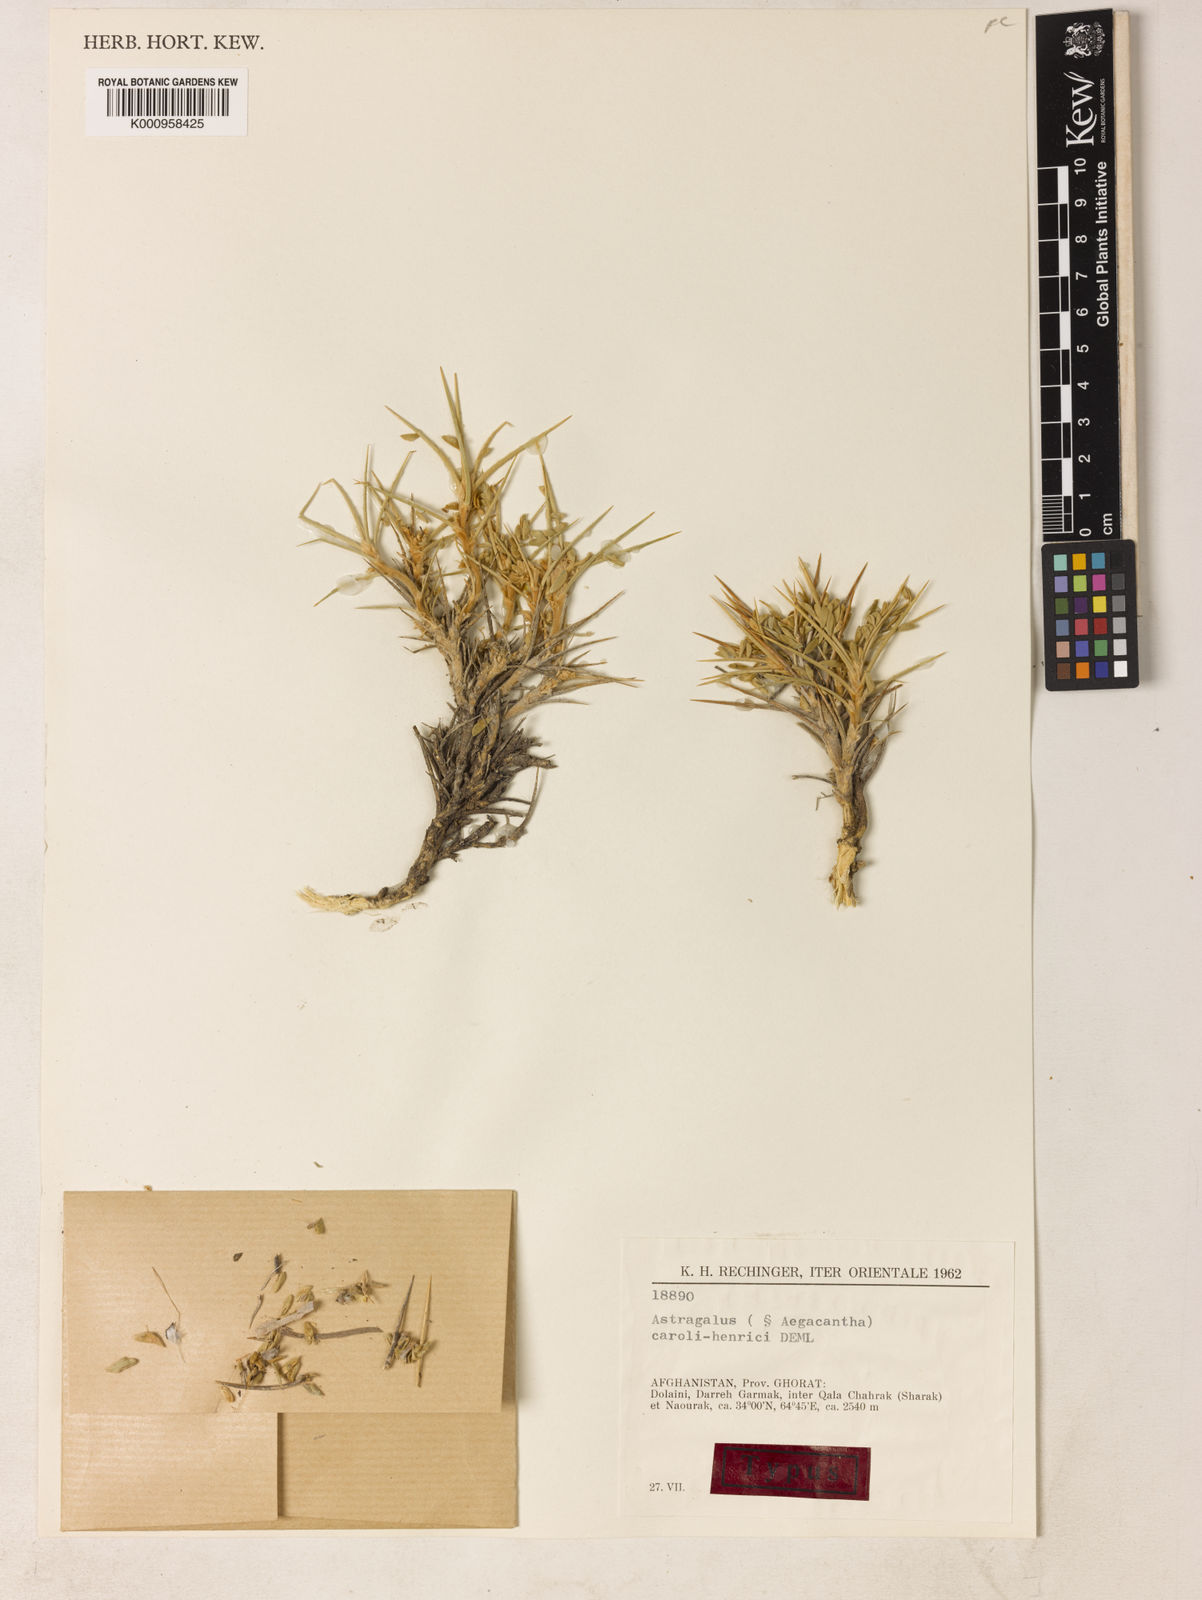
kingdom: Plantae
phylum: Tracheophyta
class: Magnoliopsida
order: Fabales
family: Fabaceae
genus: Astragalus
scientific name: Astragalus
